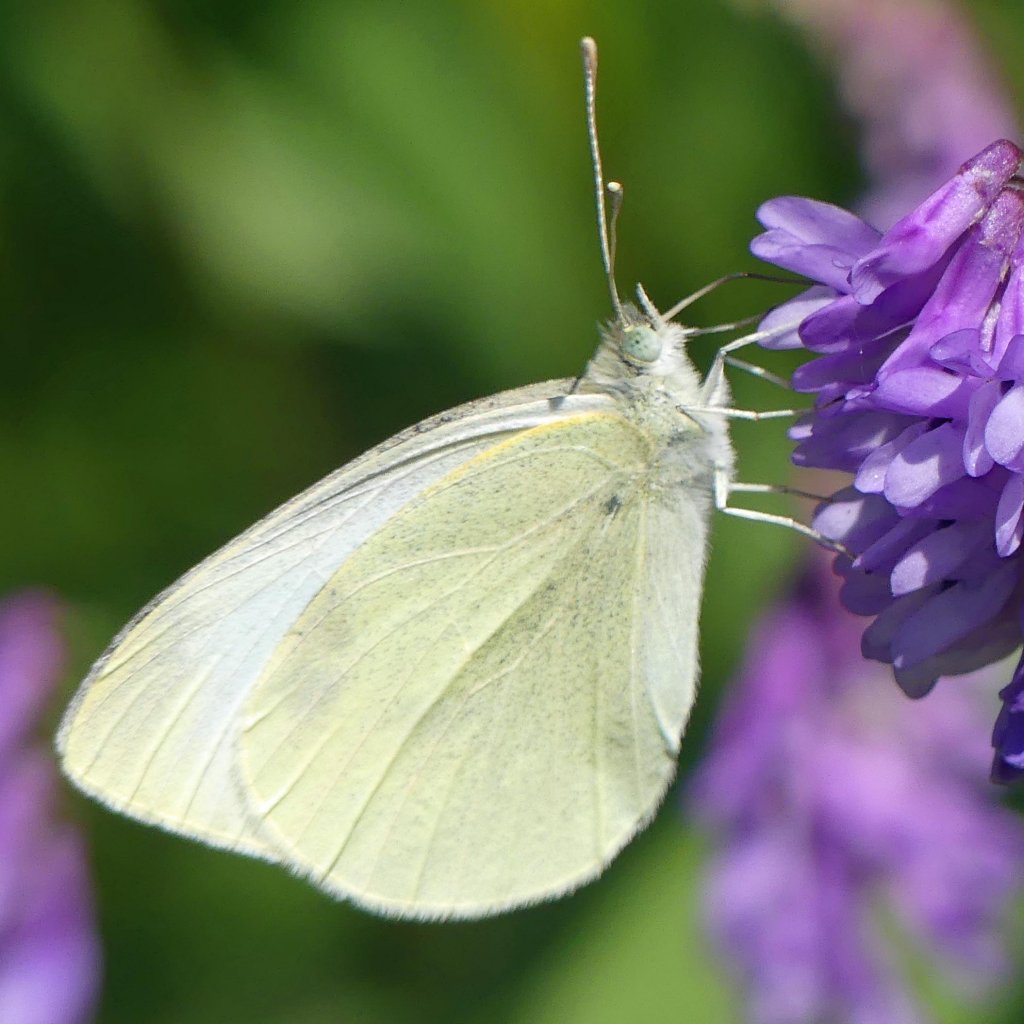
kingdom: Animalia
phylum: Arthropoda
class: Insecta
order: Lepidoptera
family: Pieridae
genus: Pieris
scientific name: Pieris rapae
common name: Cabbage White
